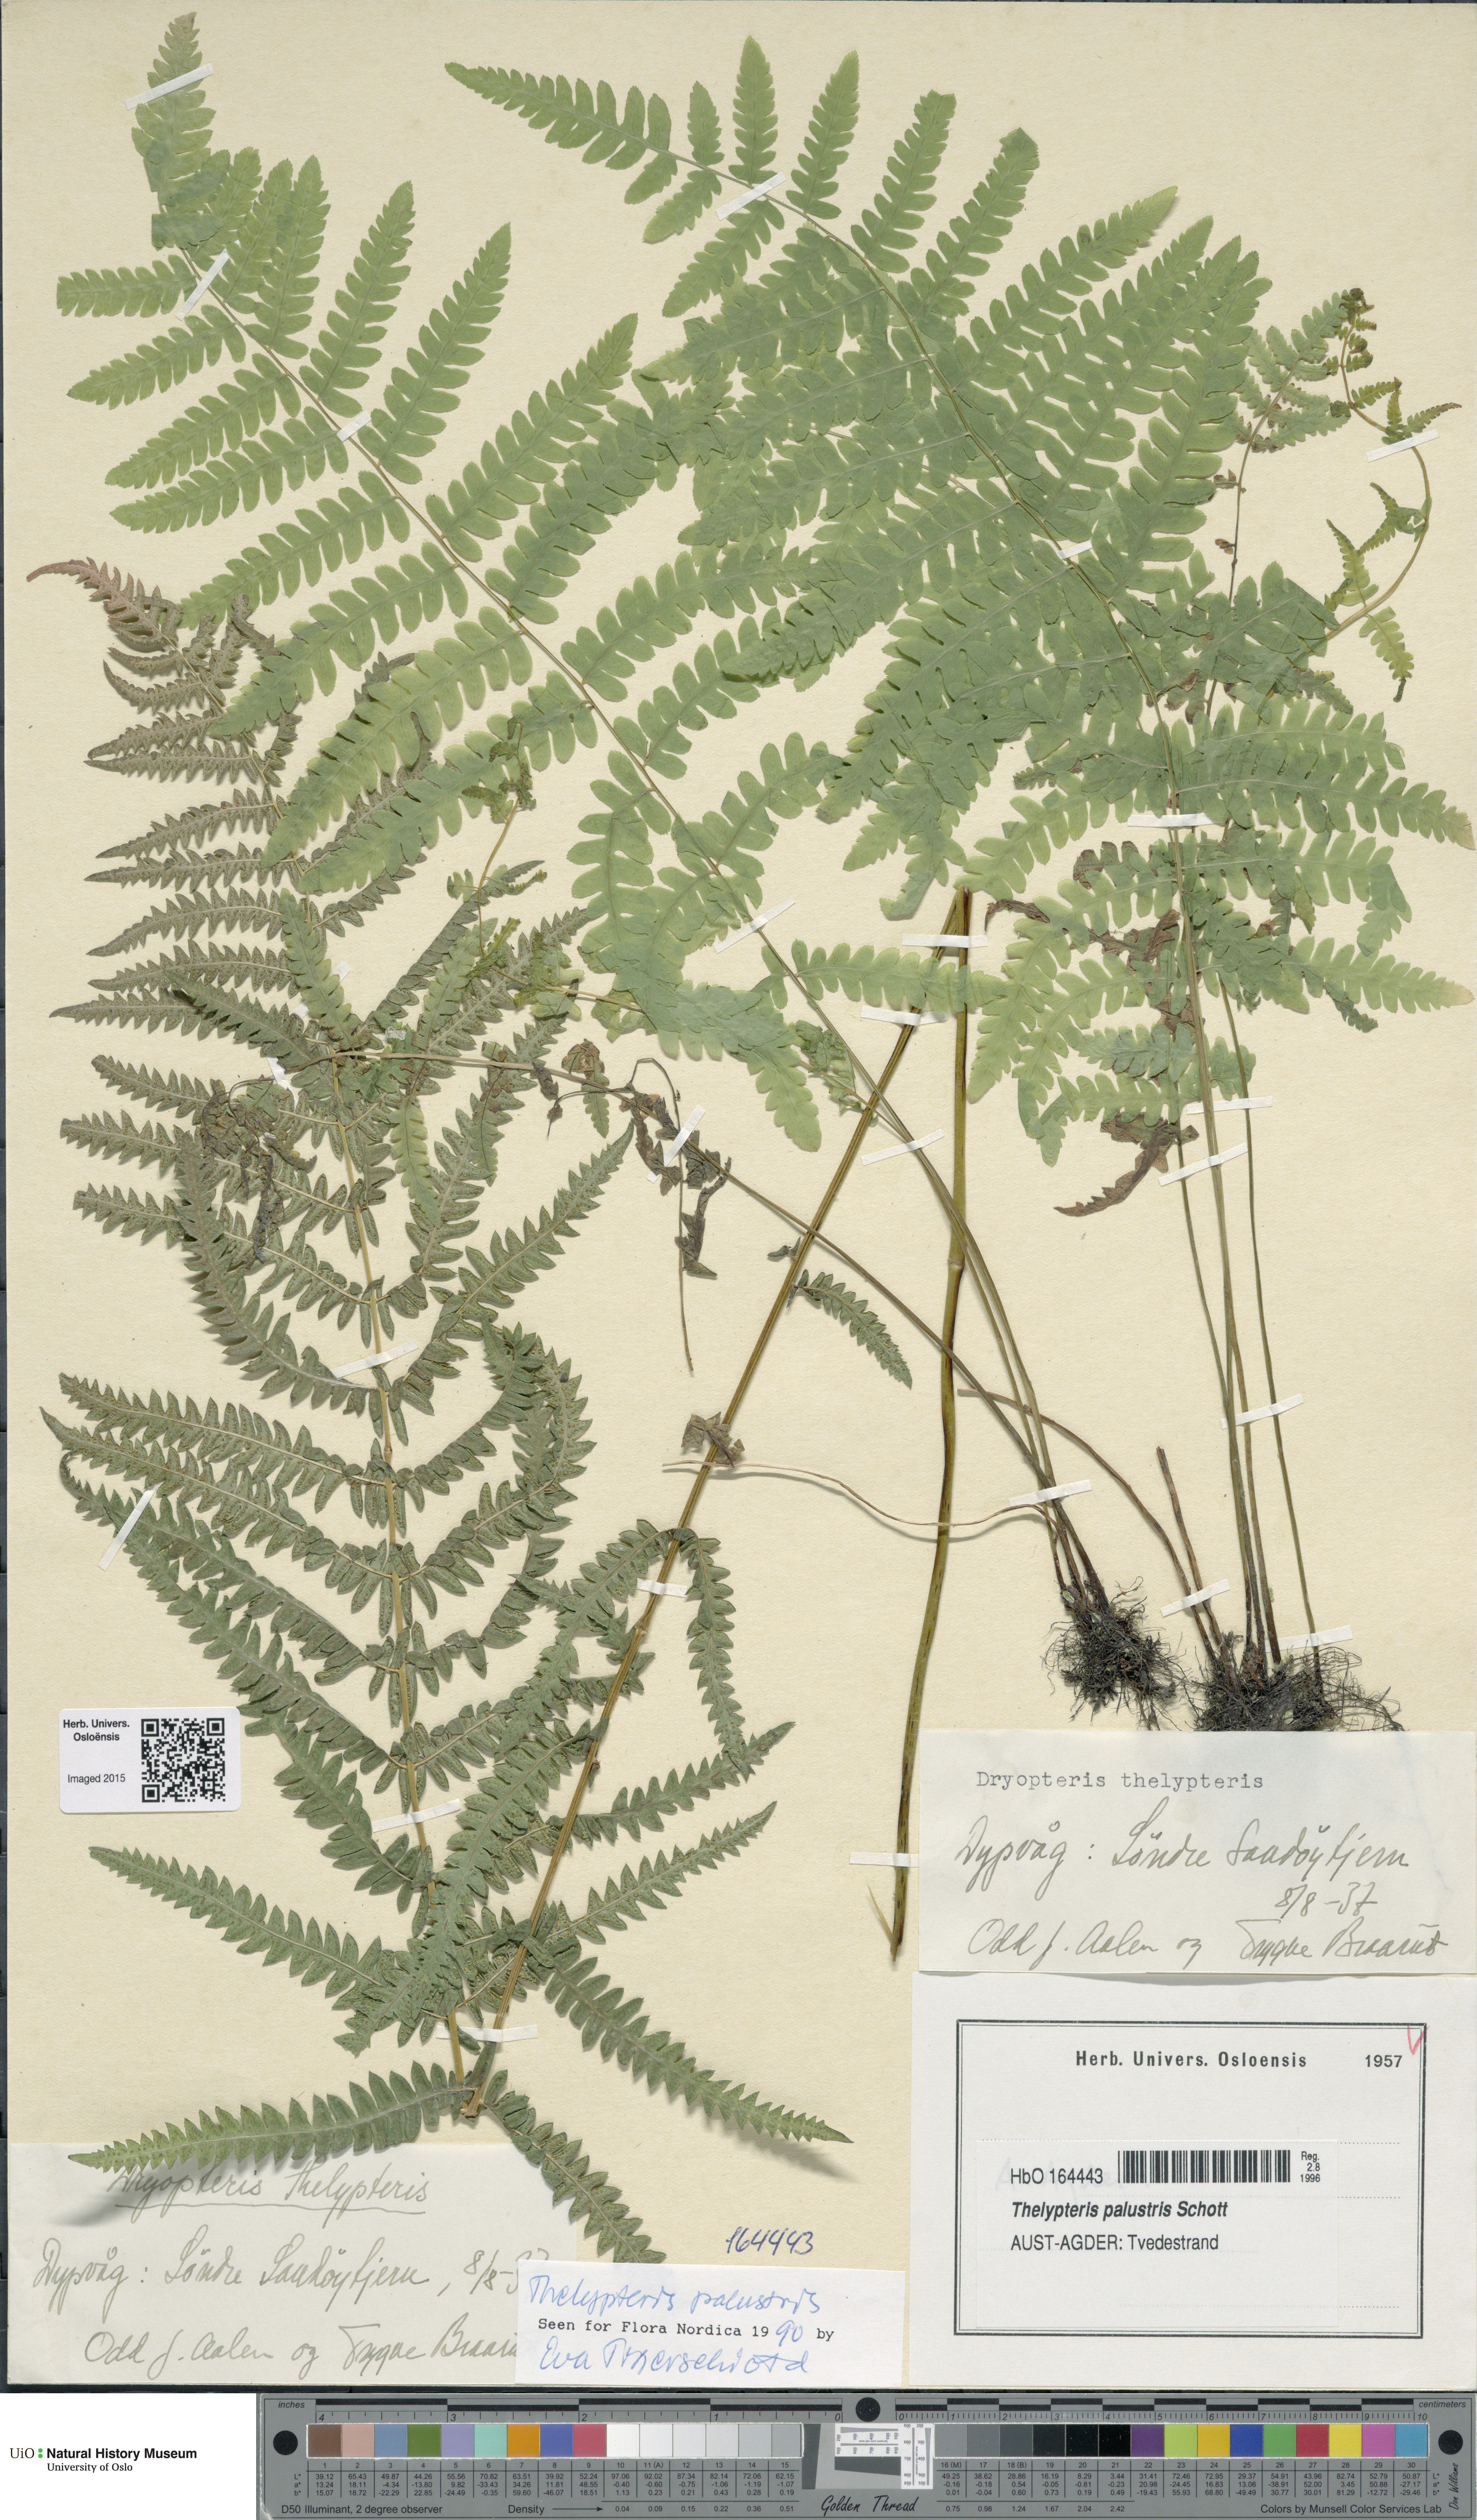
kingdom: Plantae
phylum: Tracheophyta
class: Polypodiopsida
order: Polypodiales
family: Thelypteridaceae
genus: Thelypteris
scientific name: Thelypteris palustris
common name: Marsh fern
